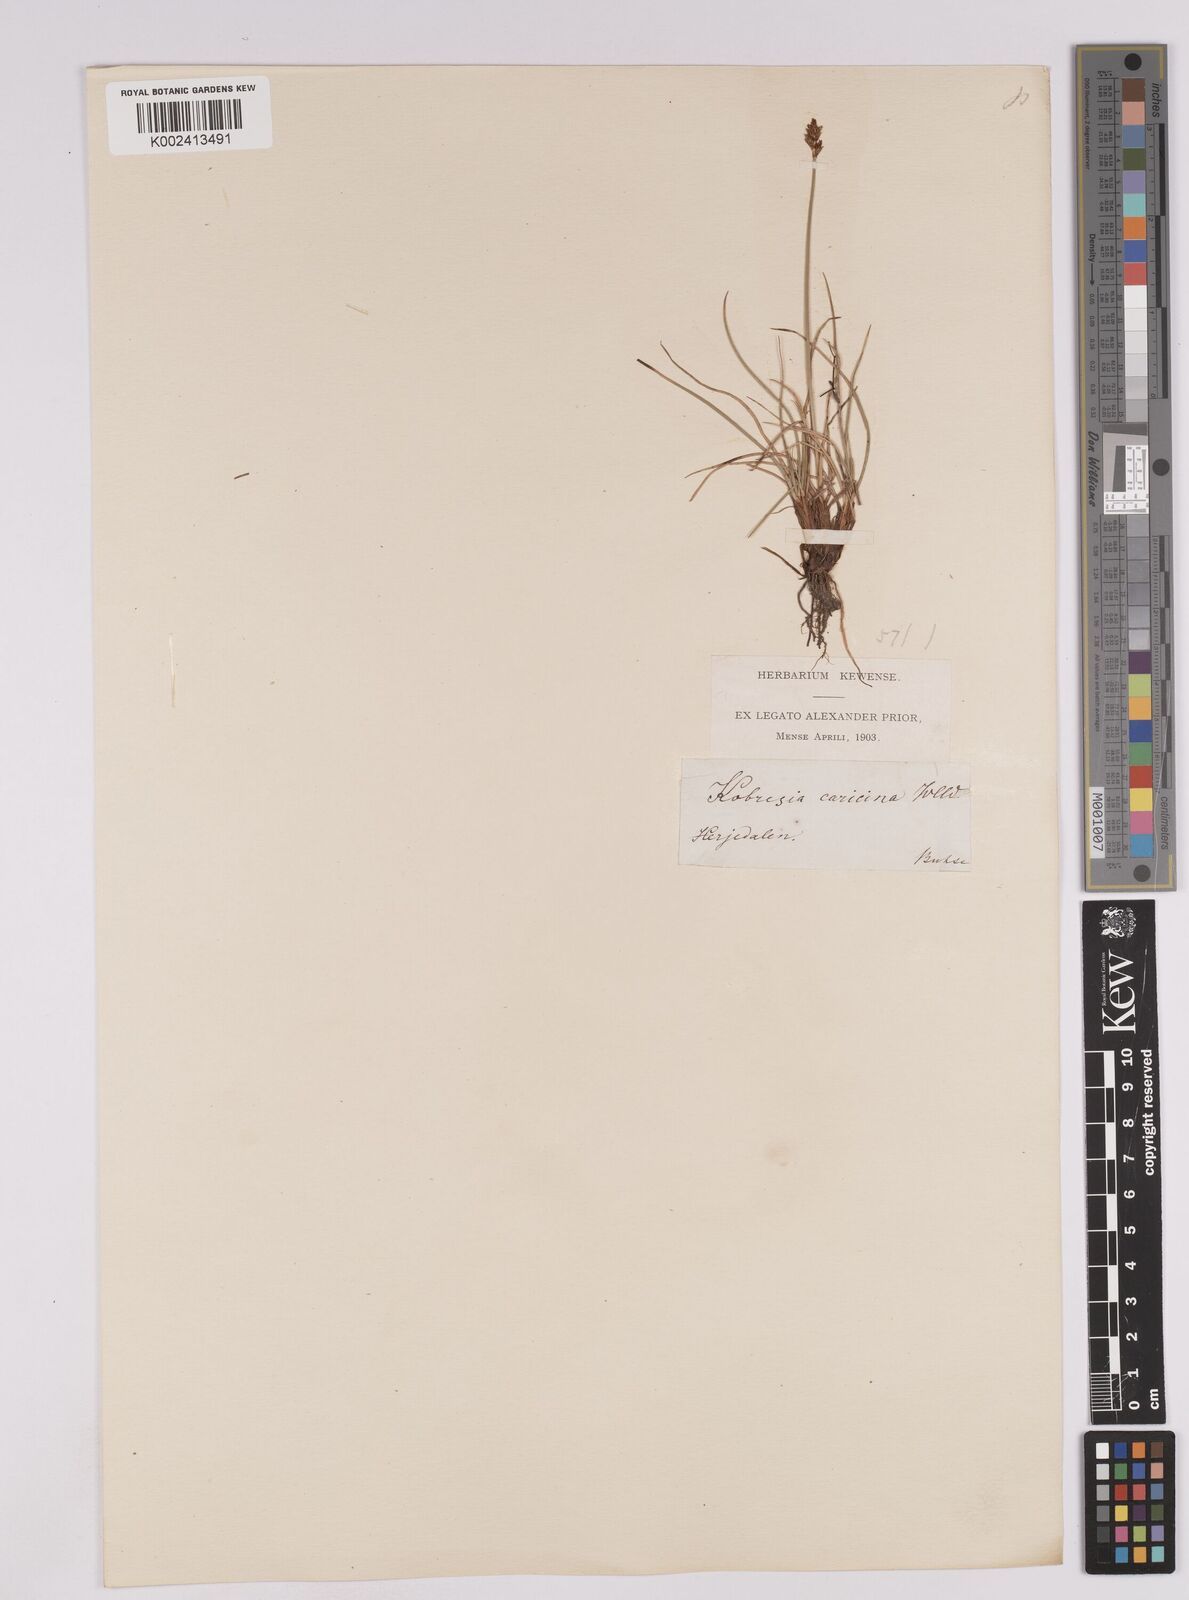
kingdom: Plantae
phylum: Tracheophyta
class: Liliopsida
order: Poales
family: Cyperaceae
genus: Carex
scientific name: Carex simpliciuscula
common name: Simple bog sedge
